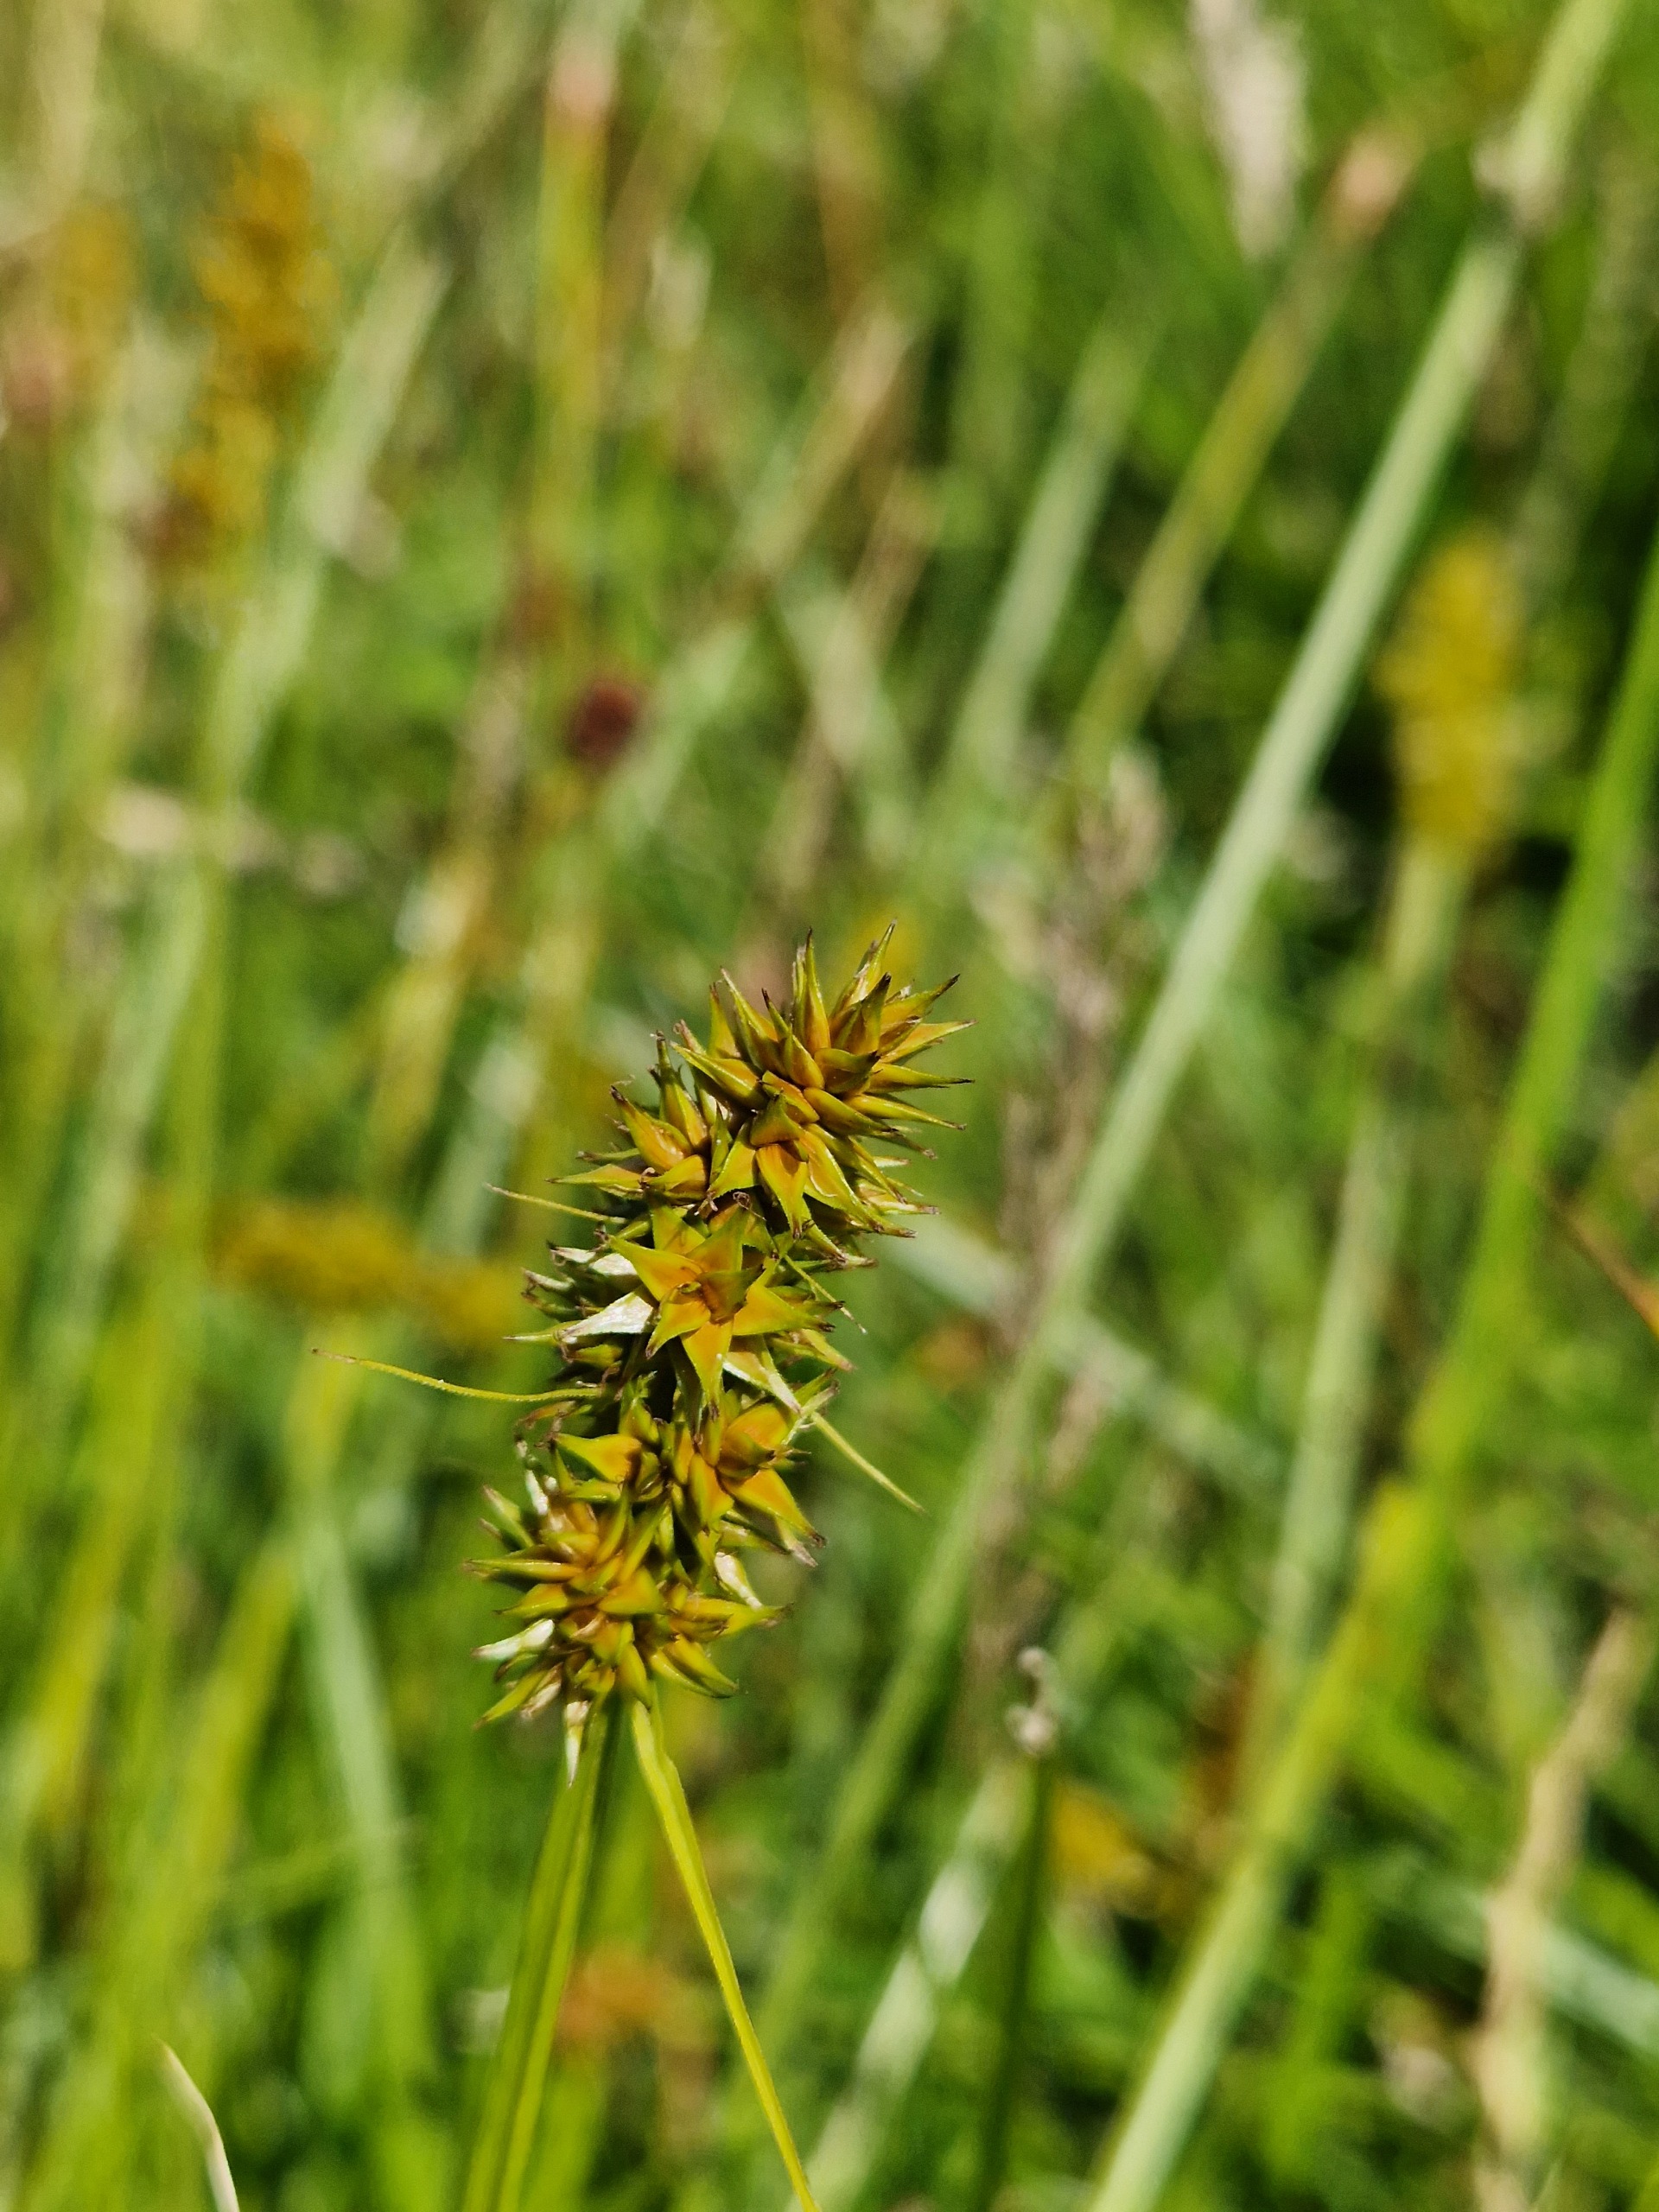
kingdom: Plantae
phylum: Tracheophyta
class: Liliopsida
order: Poales
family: Cyperaceae
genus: Carex
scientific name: Carex otrubae
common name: Sylt-star
